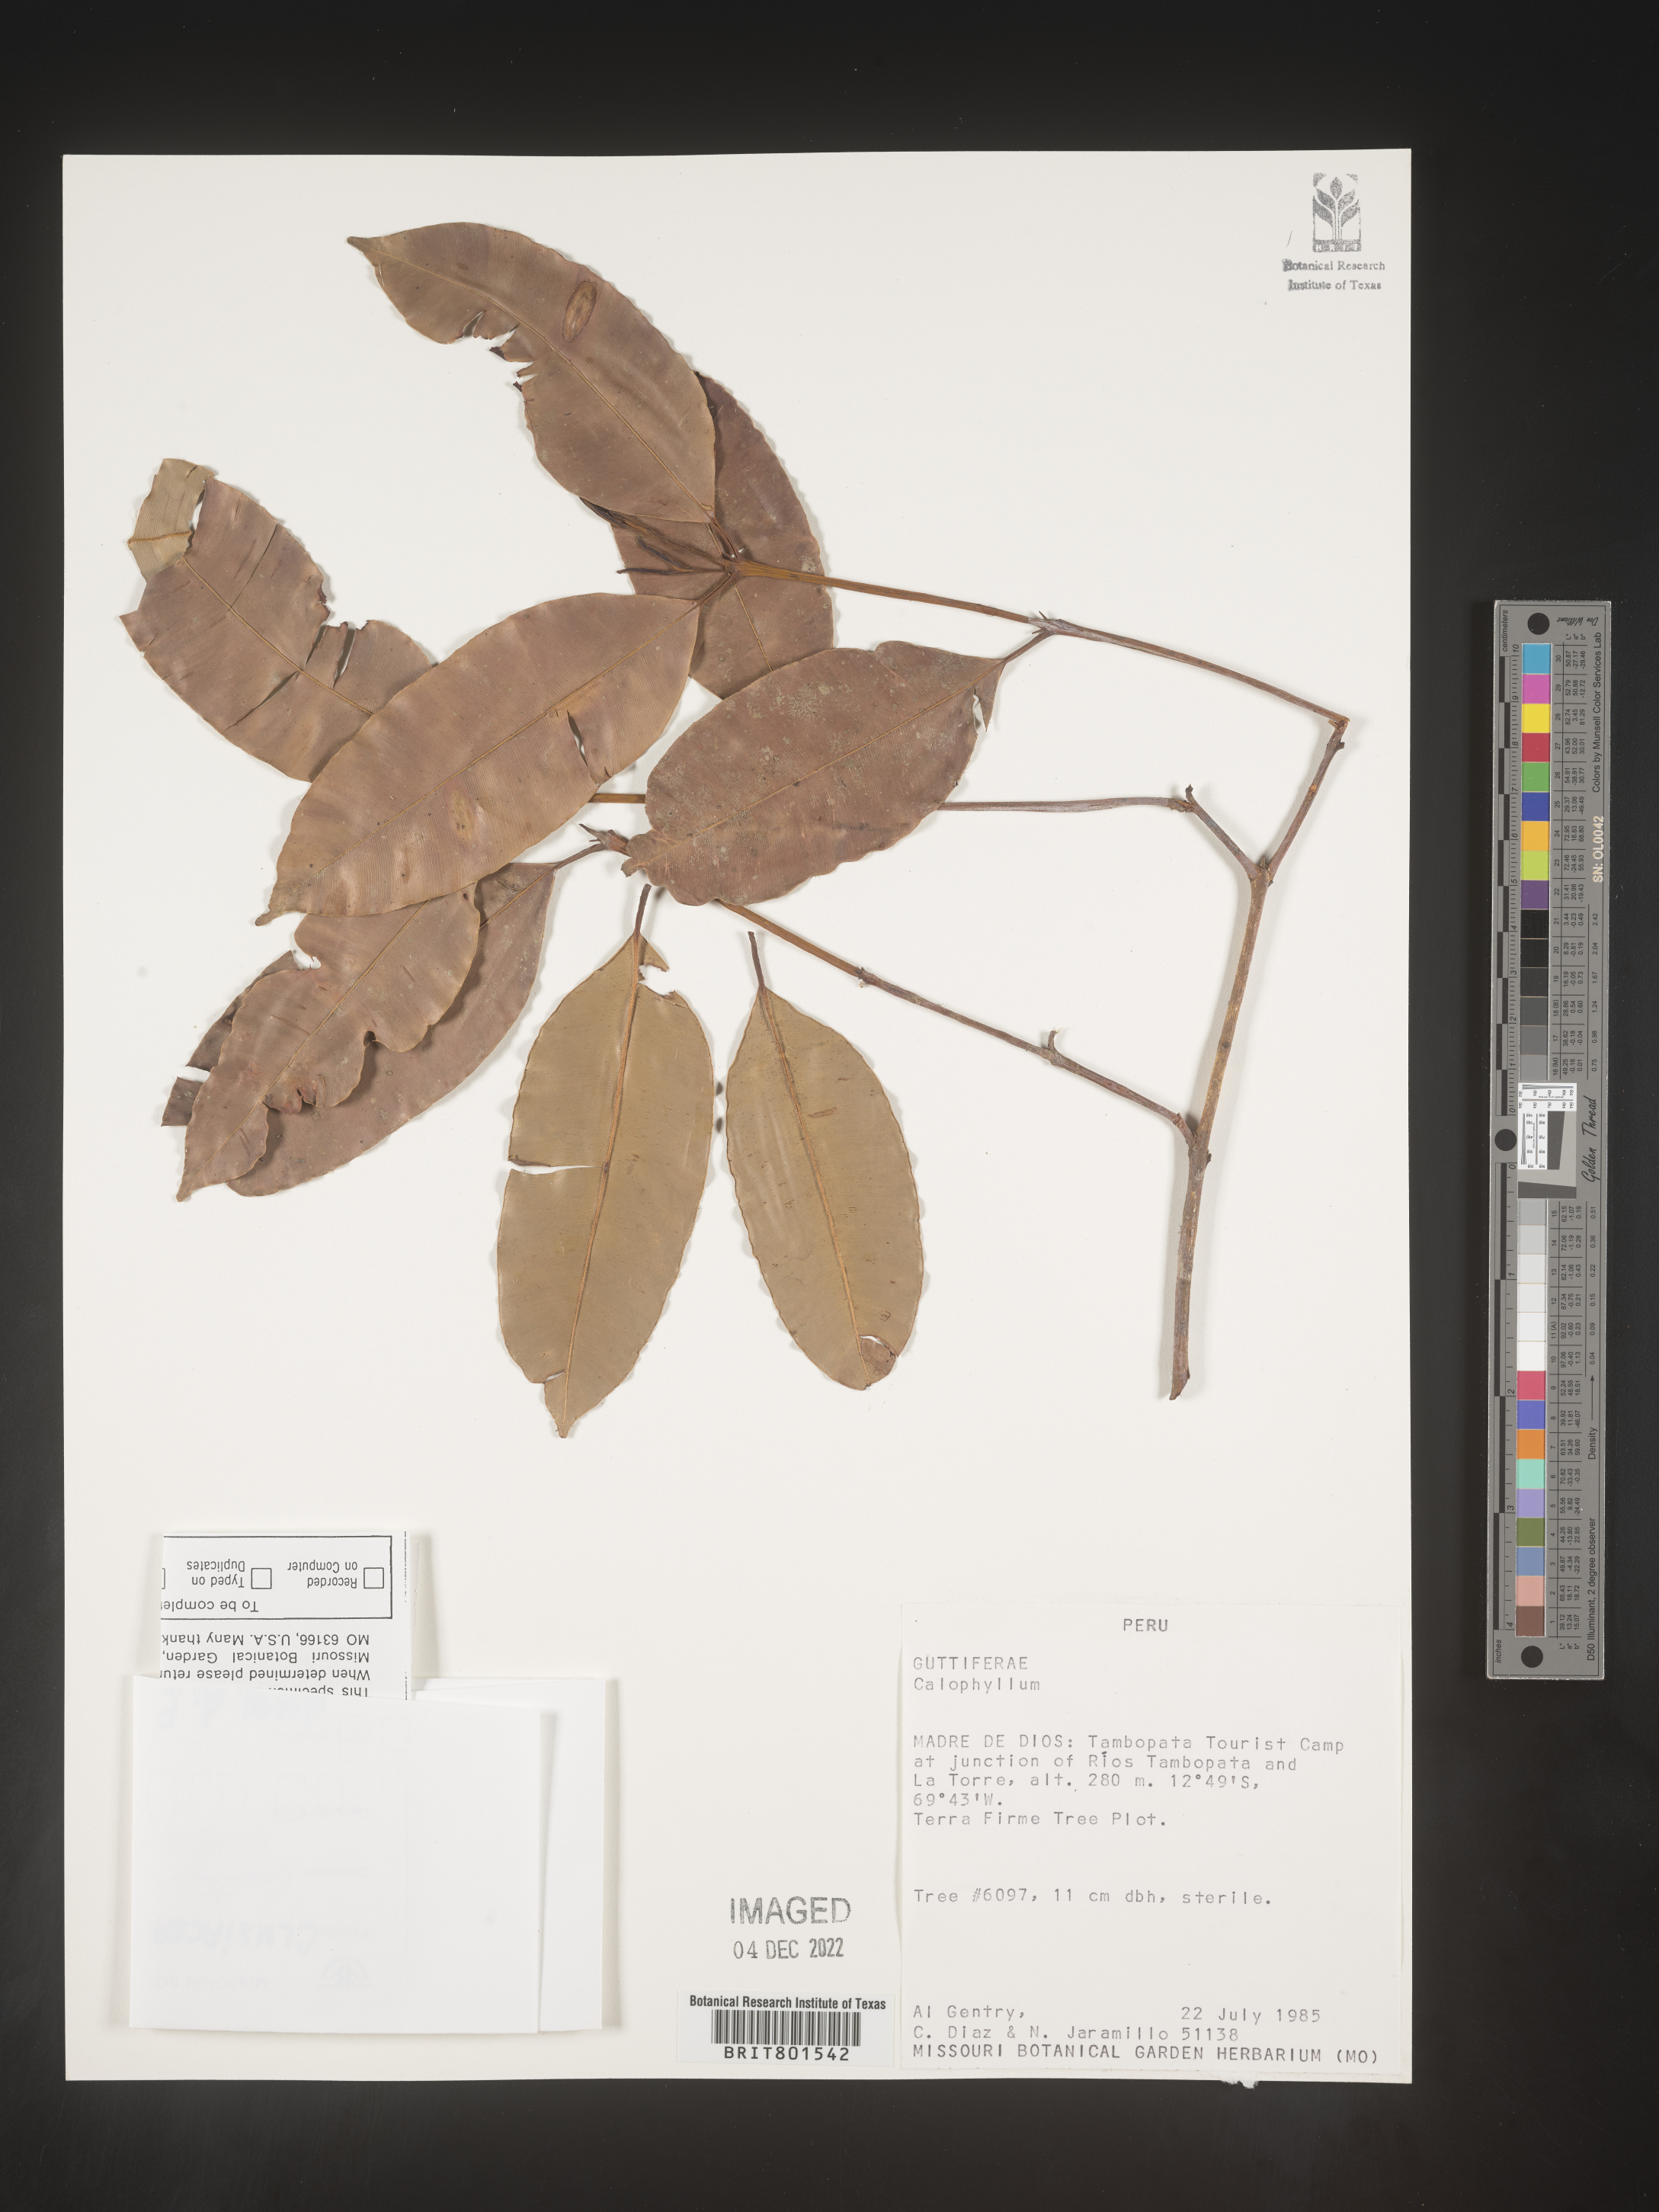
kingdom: Plantae
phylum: Tracheophyta
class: Magnoliopsida
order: Malpighiales
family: Calophyllaceae
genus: Calophyllum
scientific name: Calophyllum
